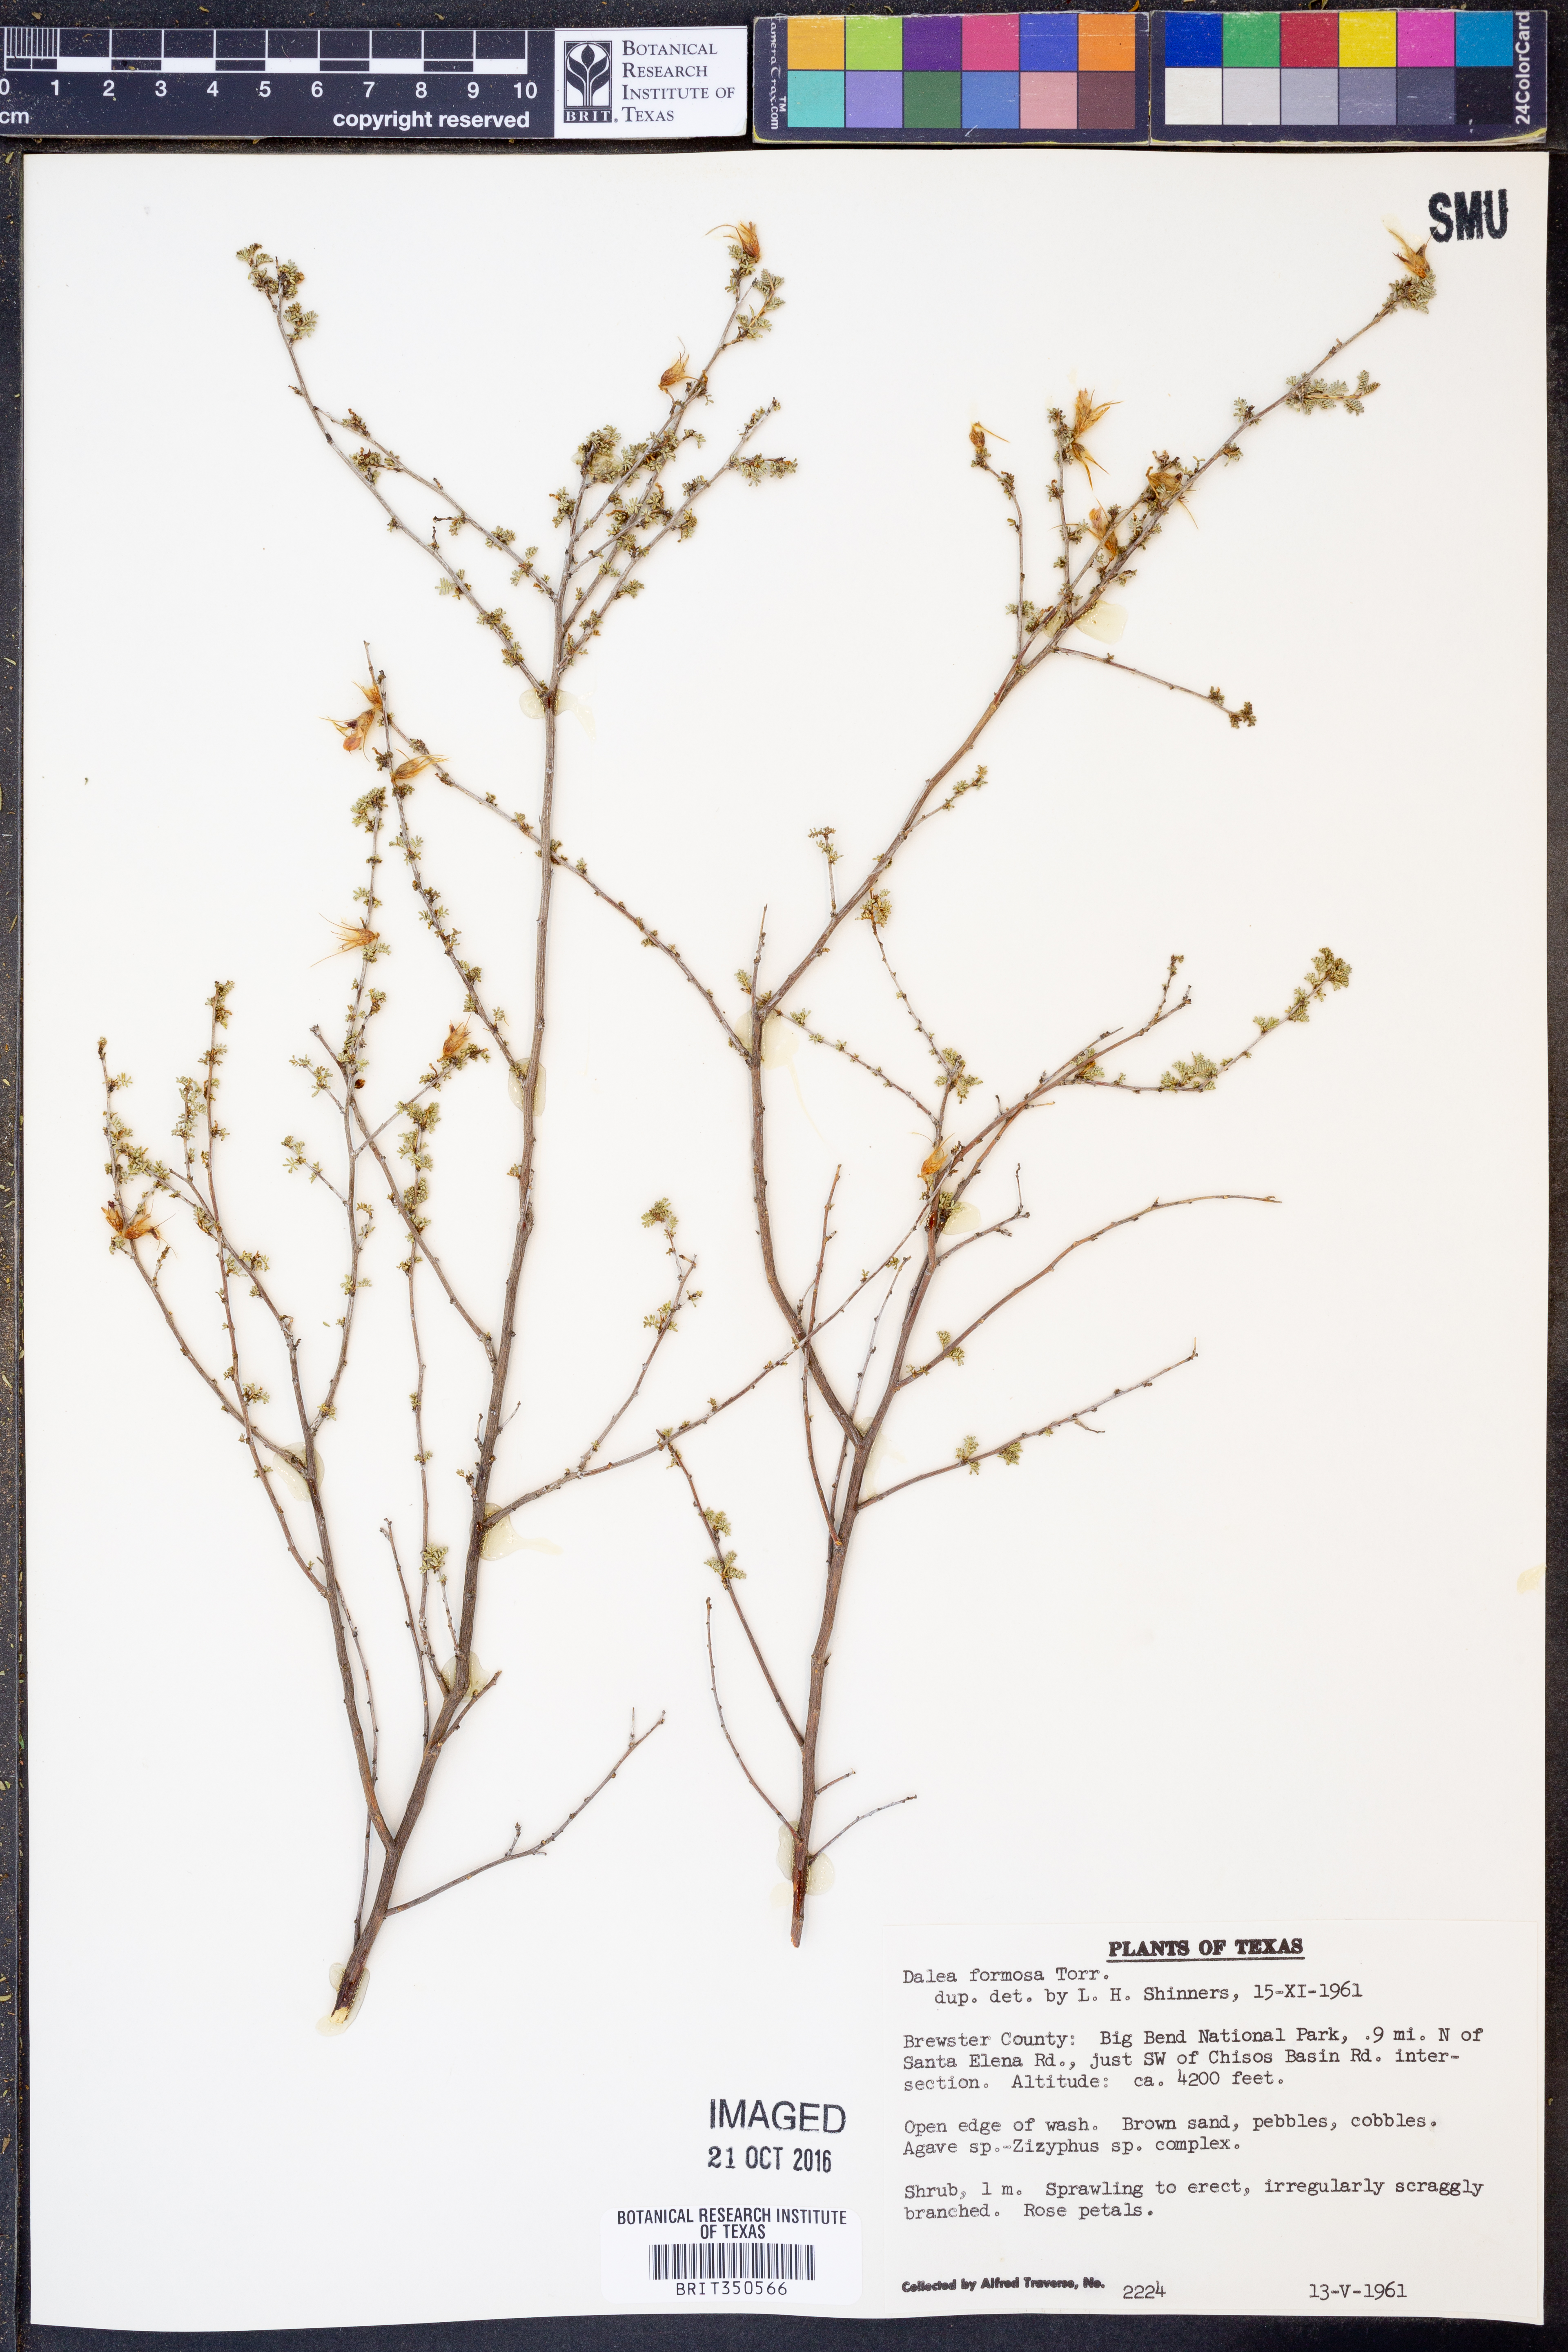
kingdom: Plantae
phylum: Tracheophyta
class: Magnoliopsida
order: Fabales
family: Fabaceae
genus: Dalea
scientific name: Dalea formosa
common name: Feather-plume dalea
